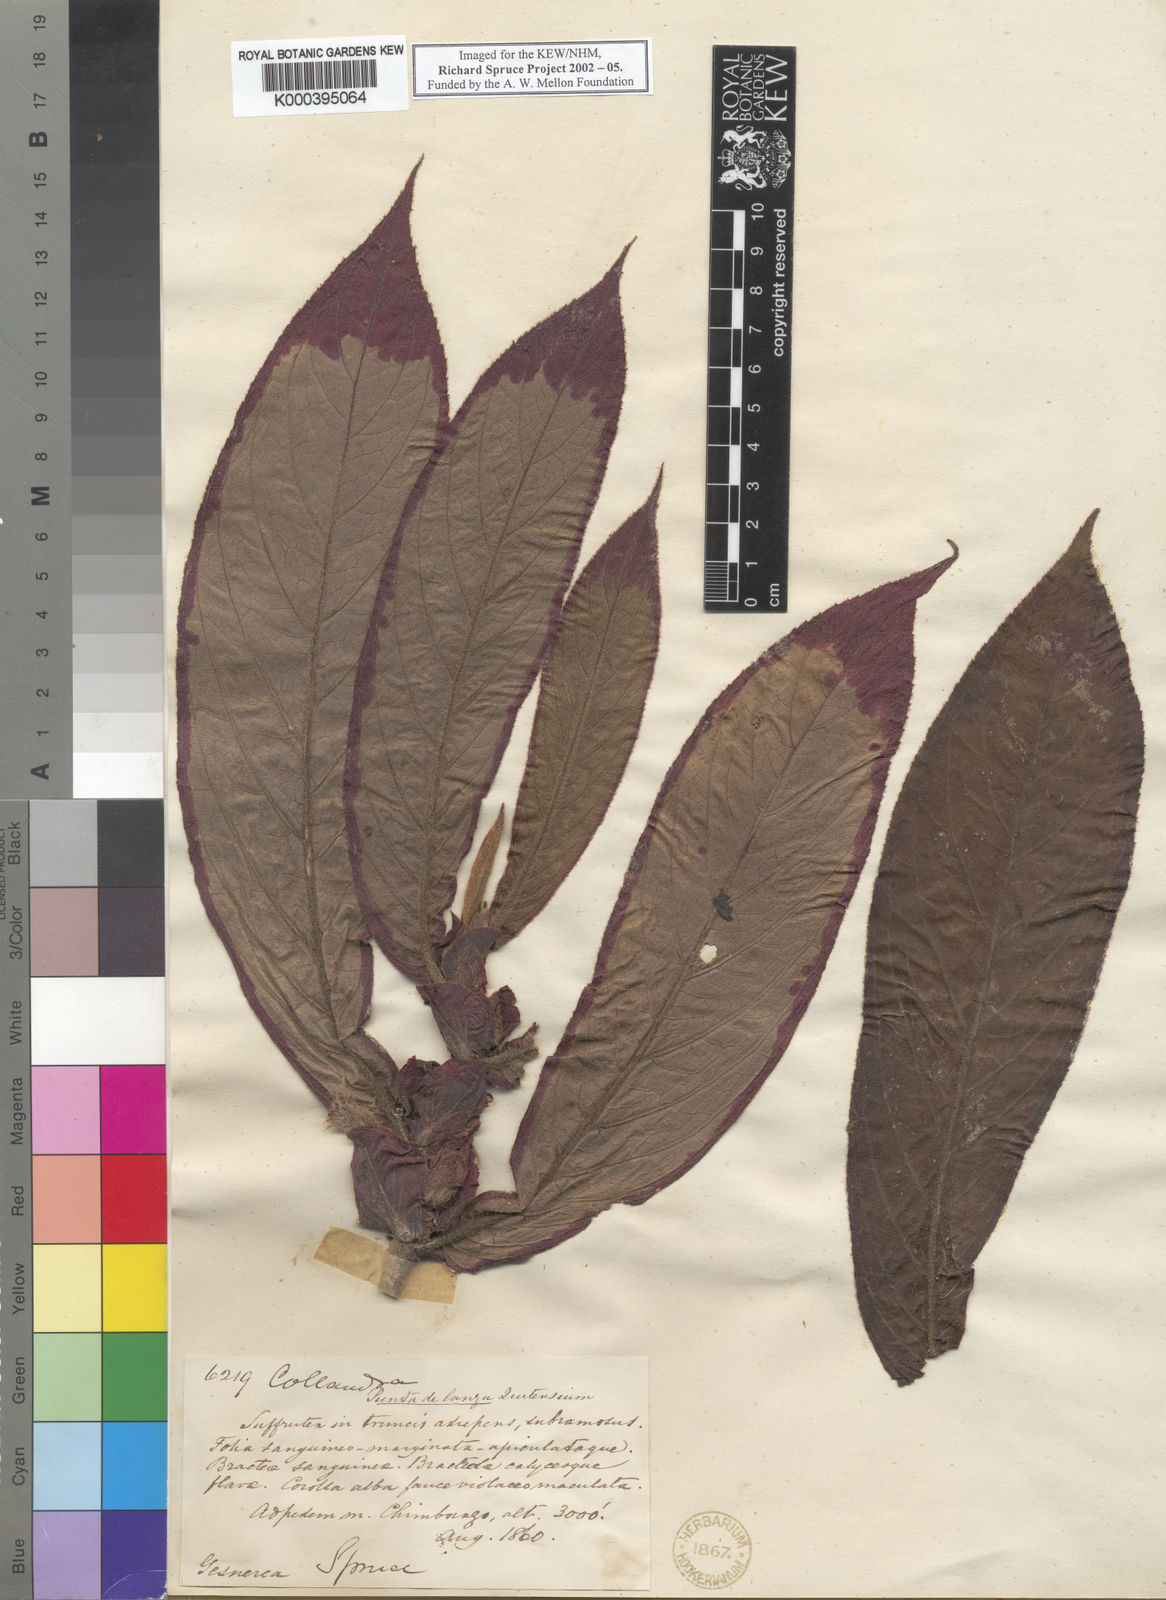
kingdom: Plantae
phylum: Tracheophyta
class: Magnoliopsida
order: Lamiales
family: Gesneriaceae
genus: Columnea
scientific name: Columnea
